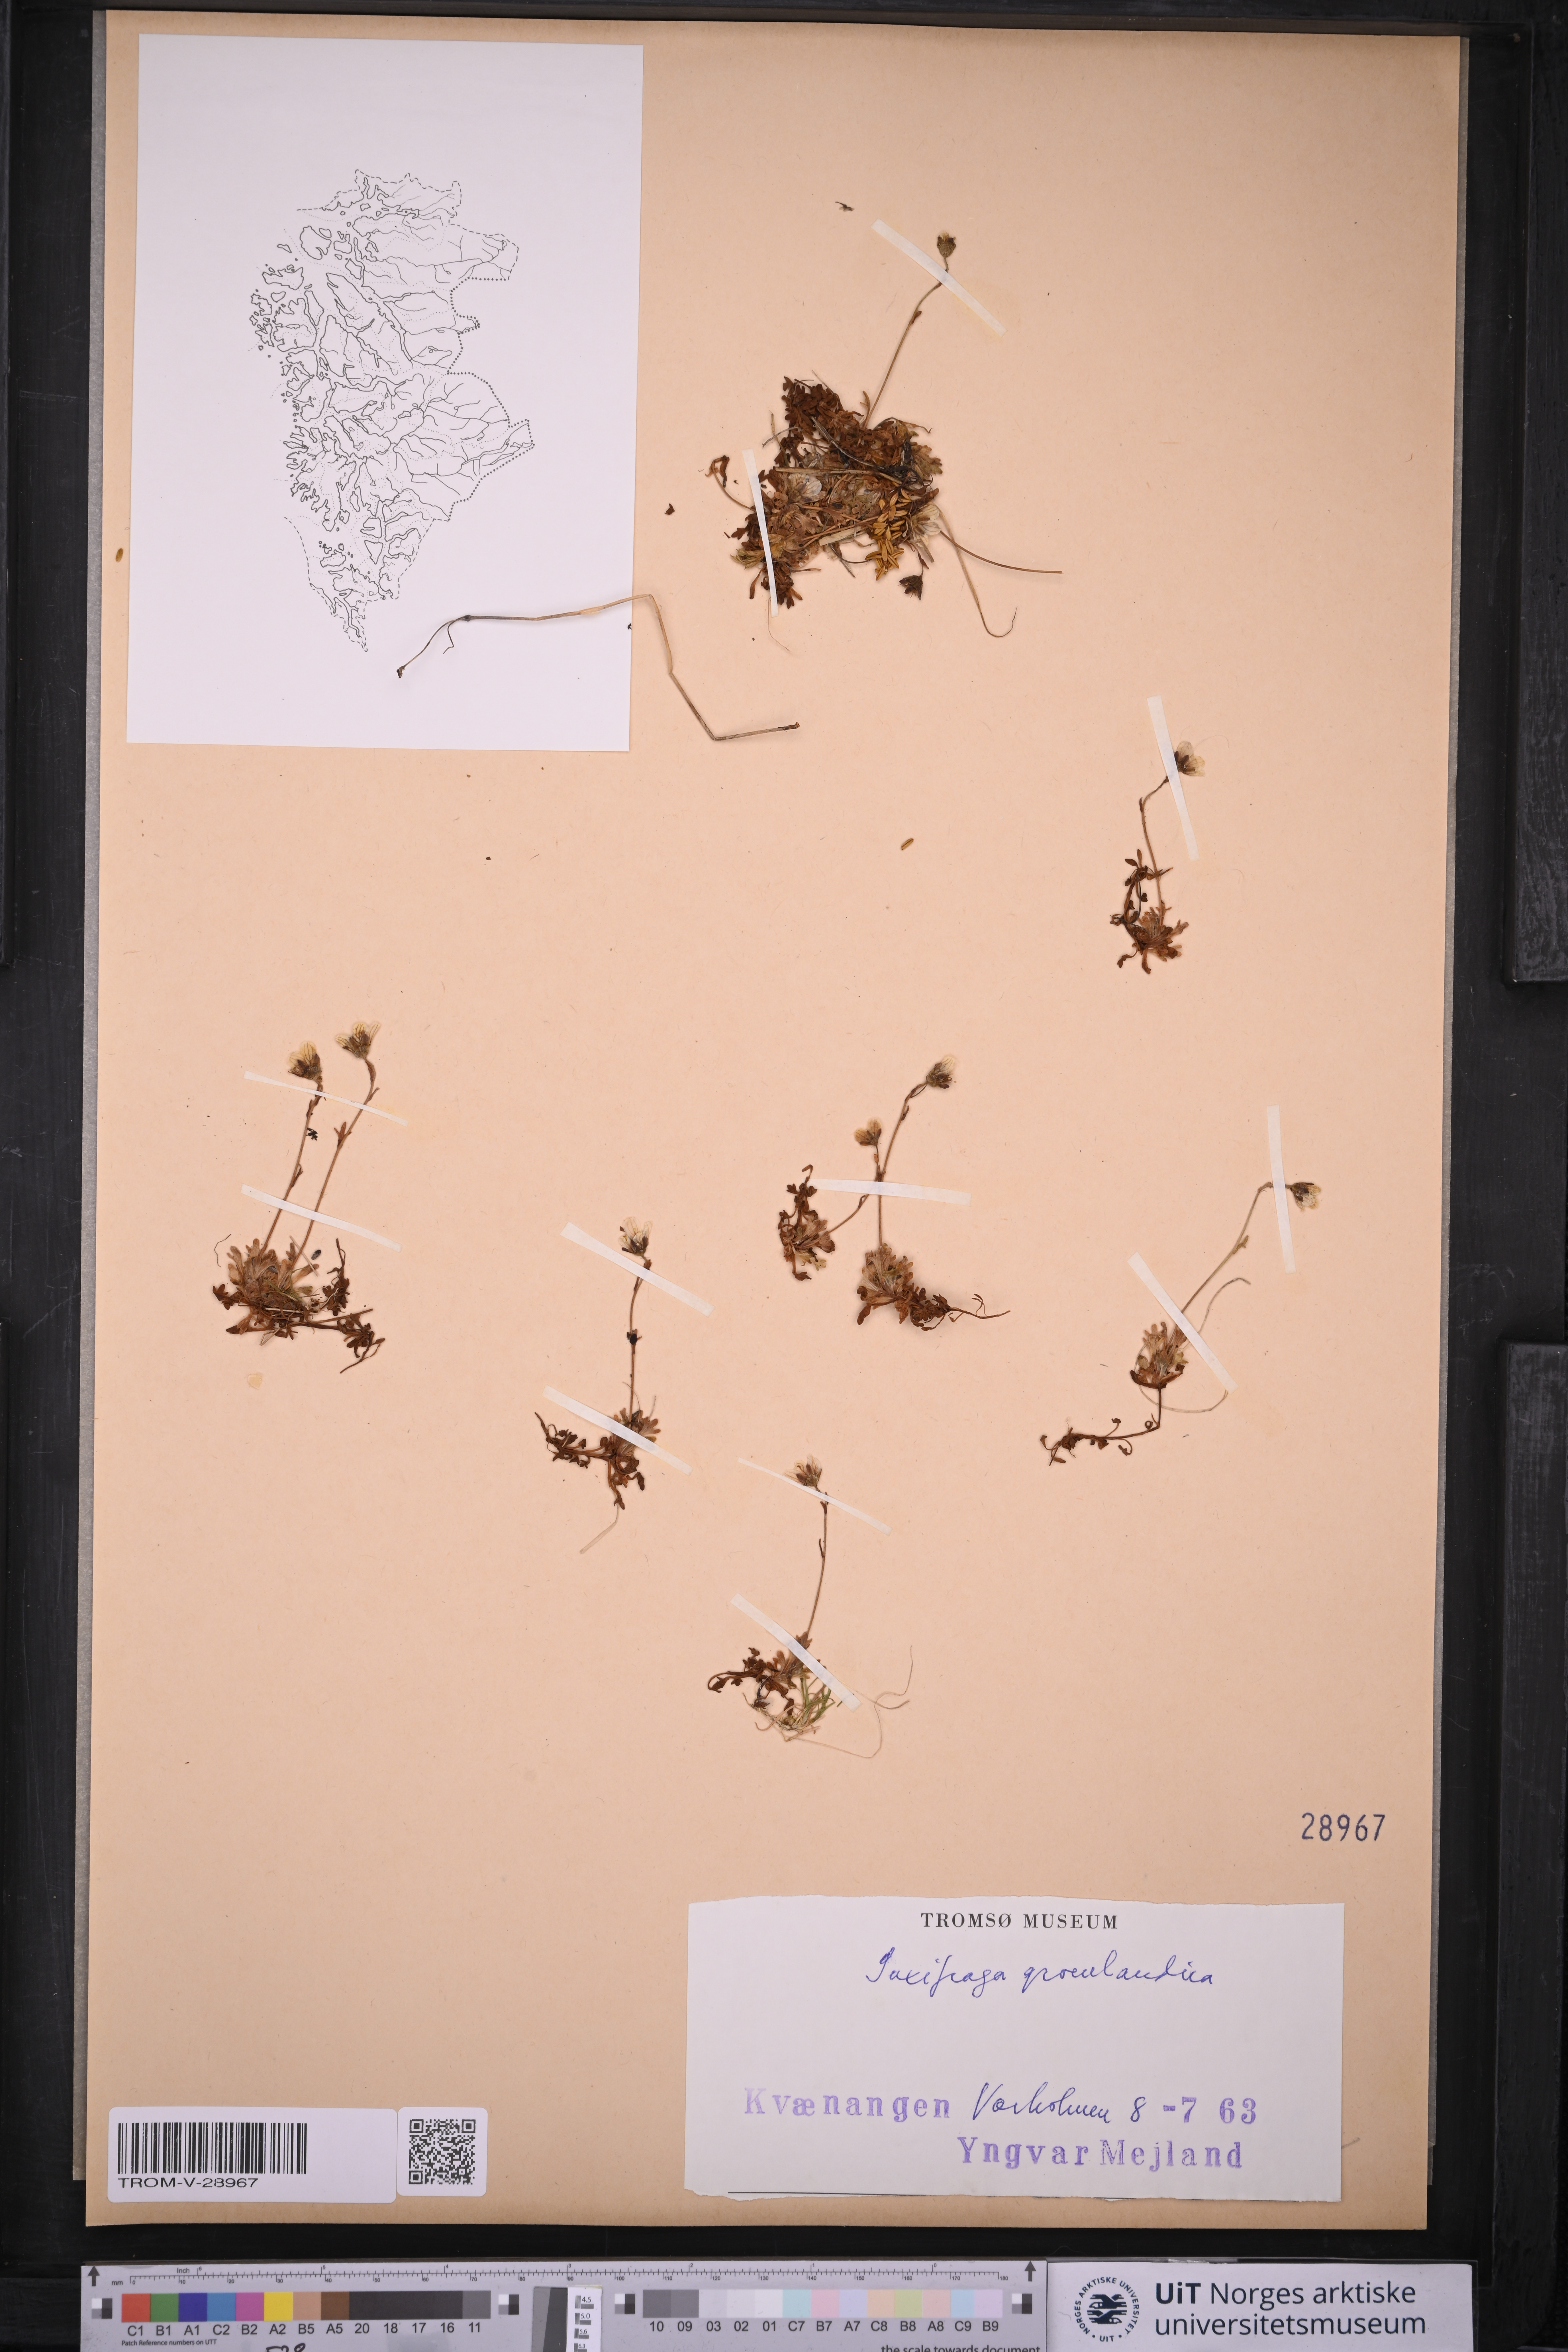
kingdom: Plantae
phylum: Tracheophyta
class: Magnoliopsida
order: Saxifragales
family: Saxifragaceae
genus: Saxifraga
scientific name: Saxifraga cespitosa
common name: Tufted saxifrage
